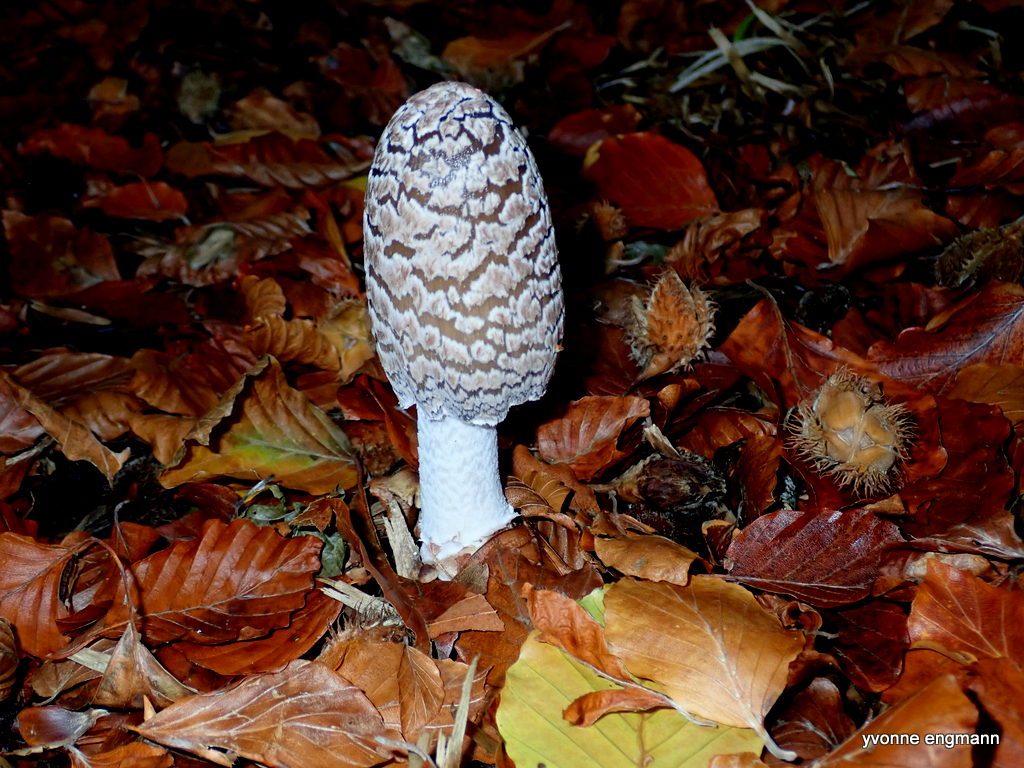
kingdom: Fungi
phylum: Basidiomycota
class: Agaricomycetes
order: Agaricales
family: Psathyrellaceae
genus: Coprinopsis
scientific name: Coprinopsis picacea
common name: skade-blækhat
